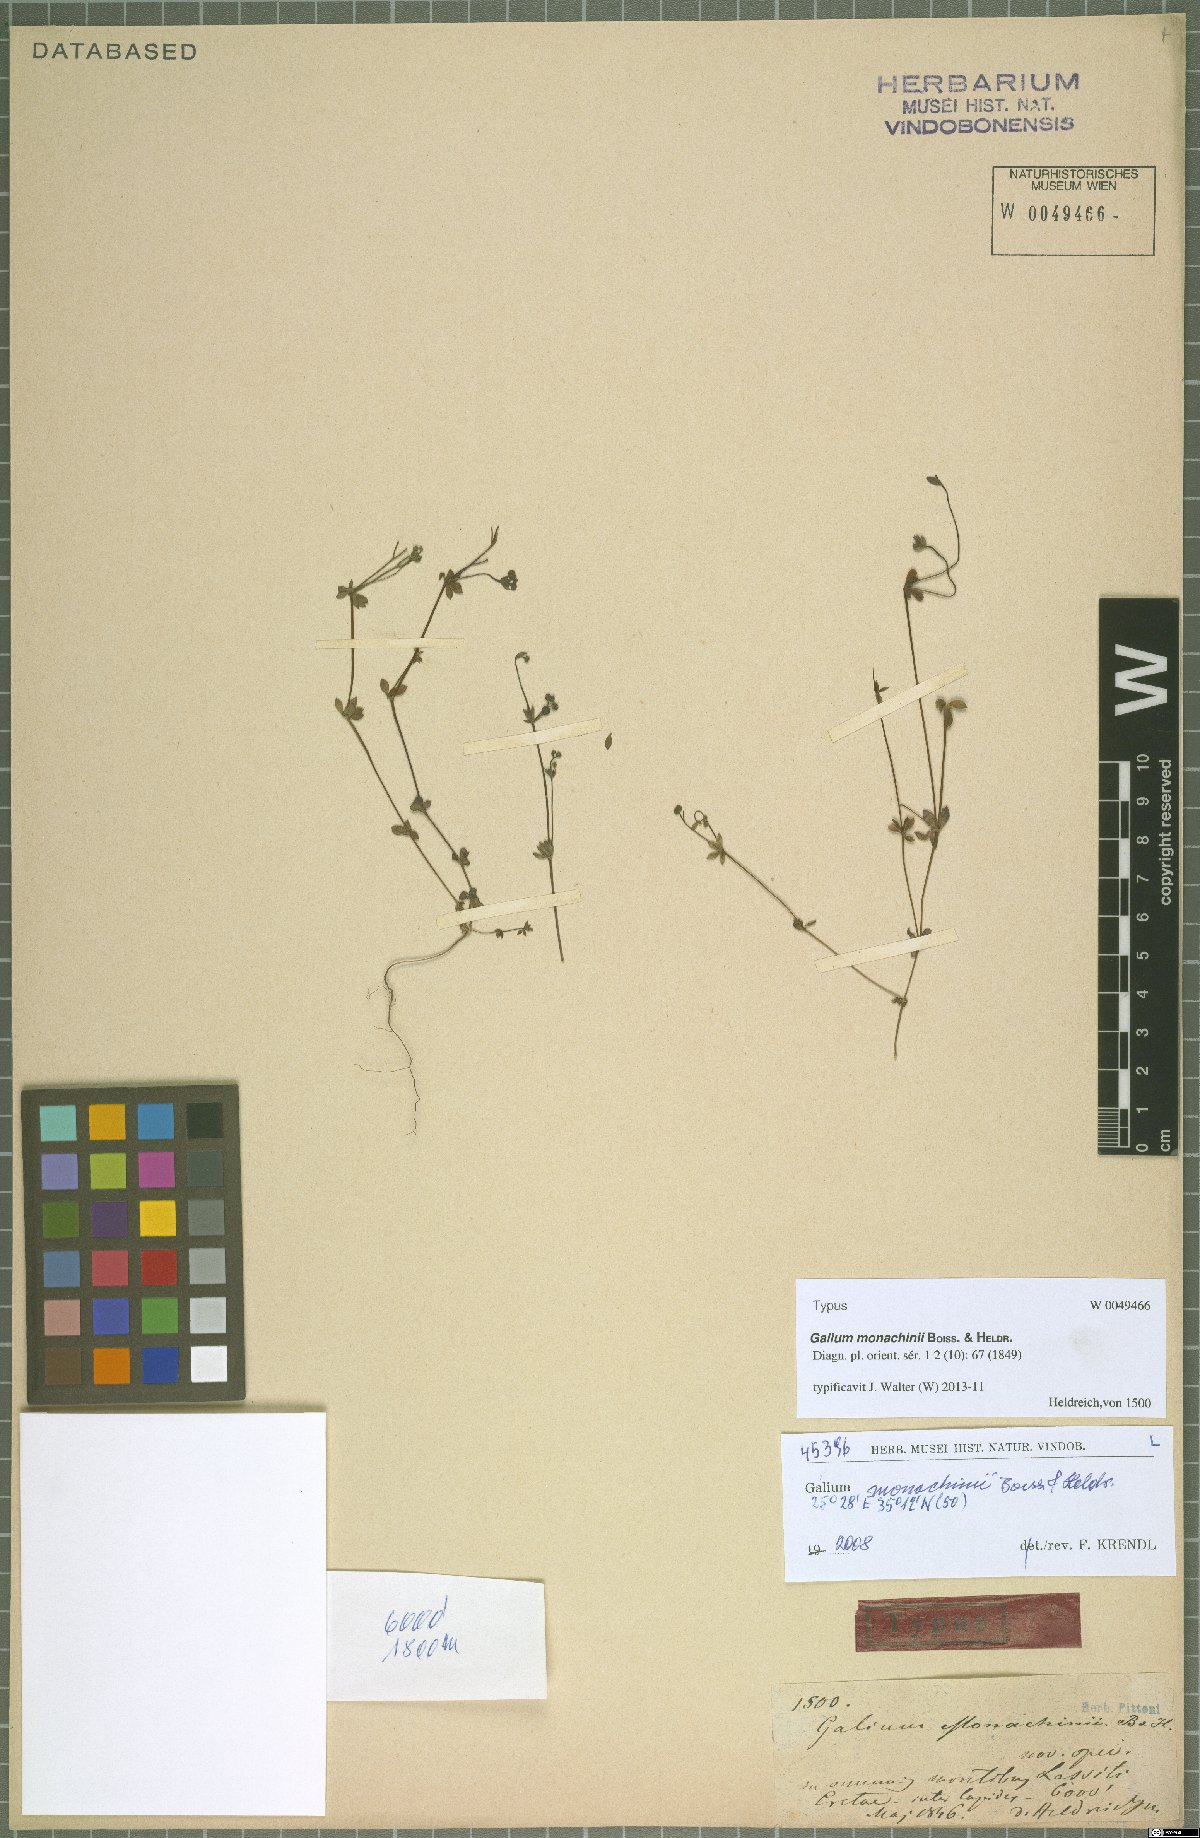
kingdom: Plantae
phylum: Tracheophyta
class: Magnoliopsida
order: Gentianales
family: Rubiaceae
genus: Galium
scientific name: Galium monachinii
